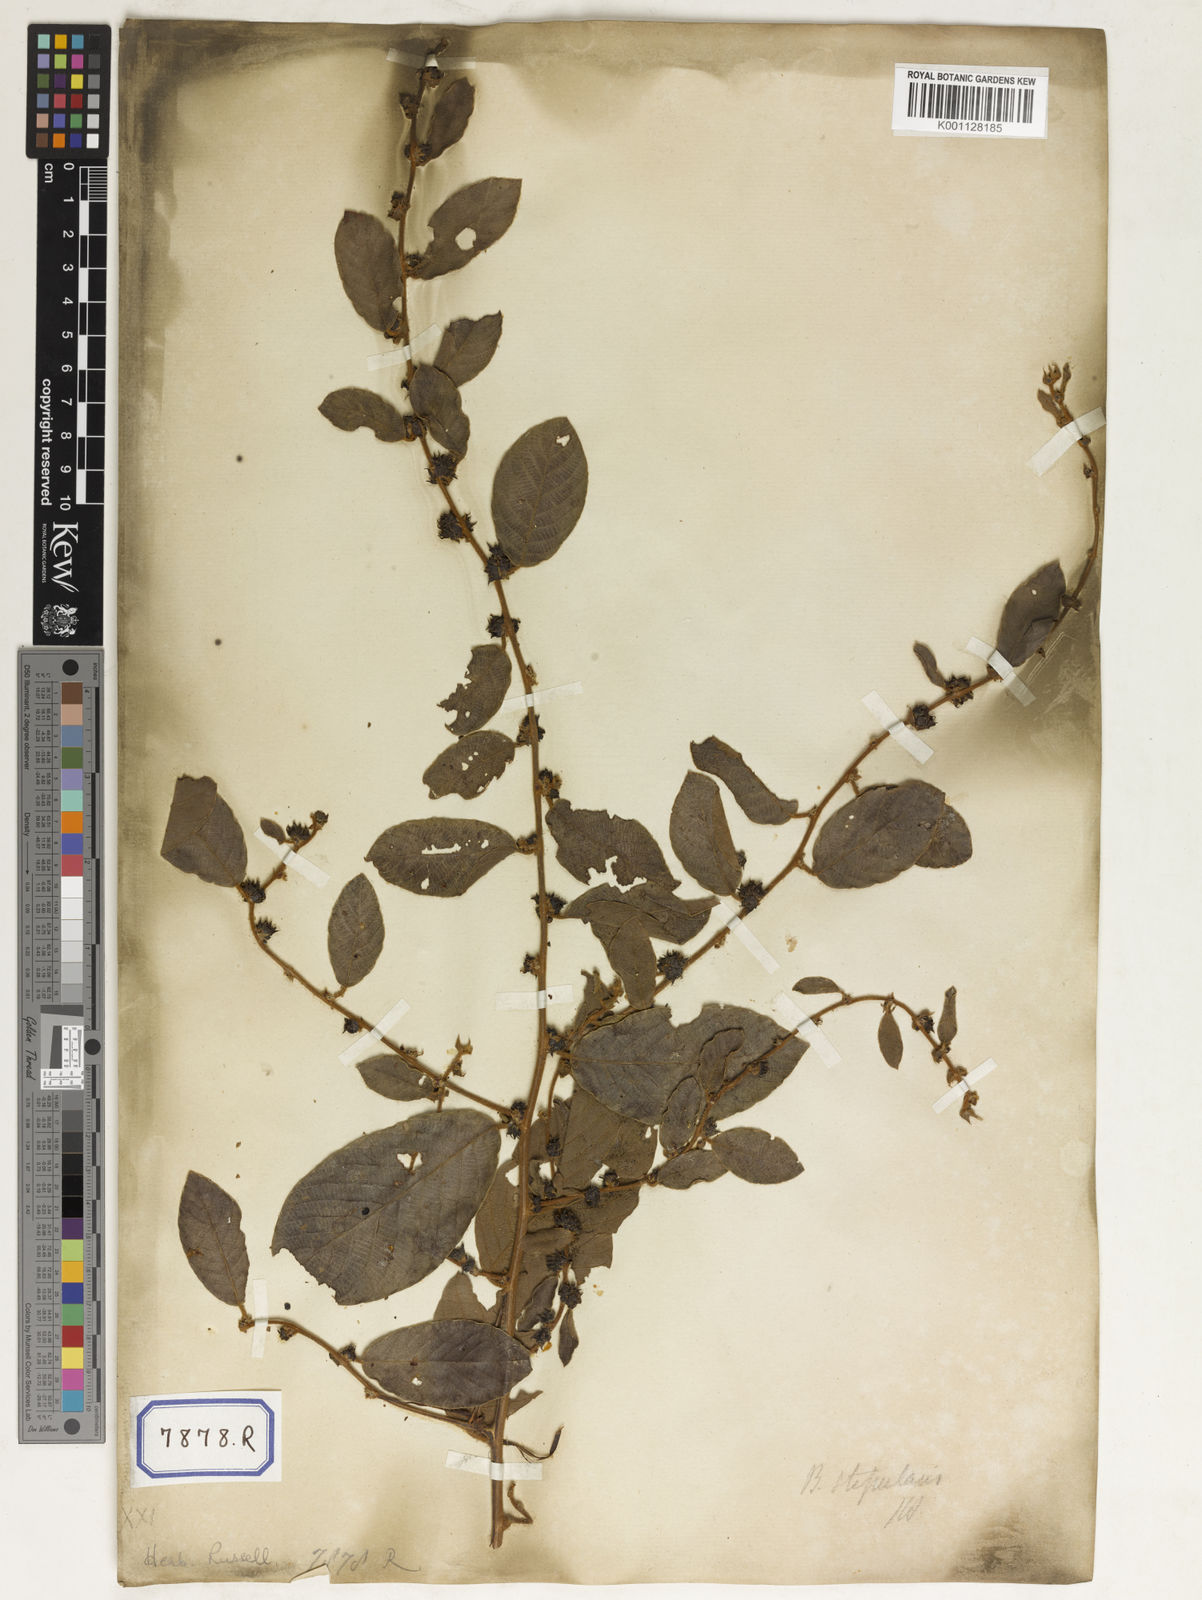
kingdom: Plantae
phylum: Tracheophyta
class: Magnoliopsida
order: Malpighiales
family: Phyllanthaceae
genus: Bridelia
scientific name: Bridelia
